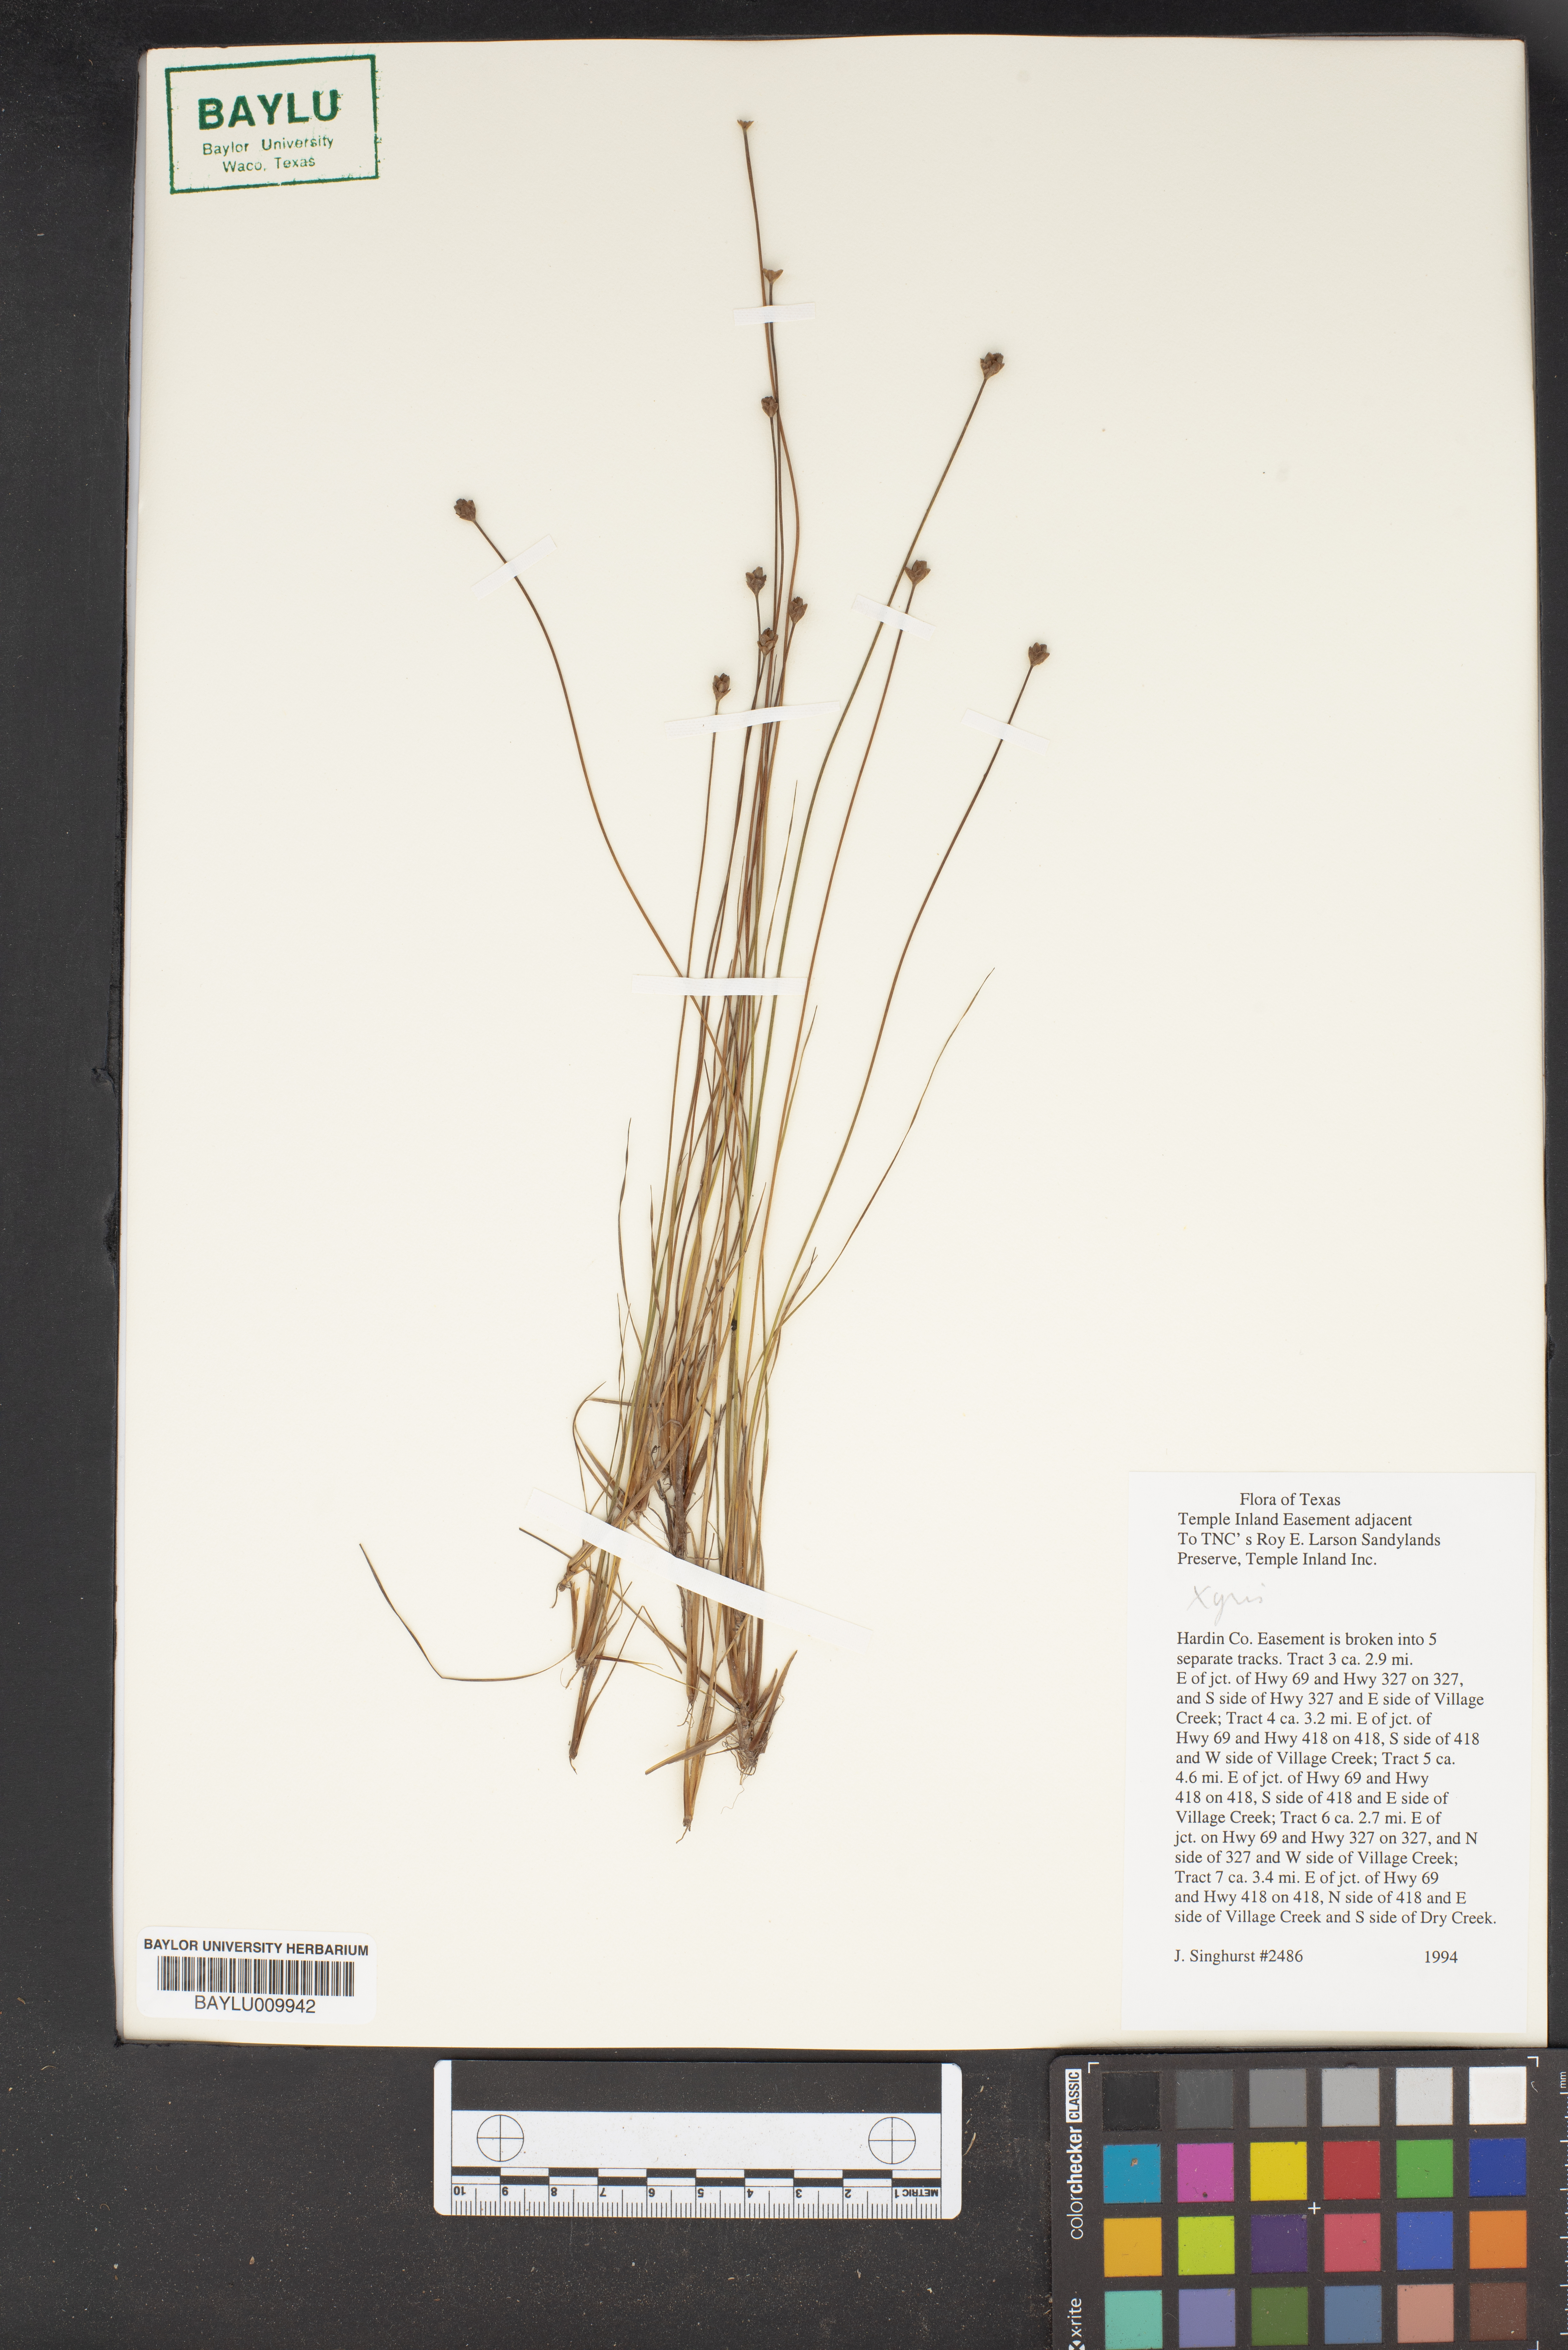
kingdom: Plantae
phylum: Tracheophyta
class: Liliopsida
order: Poales
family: Xyridaceae
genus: Xyris
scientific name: Xyris
